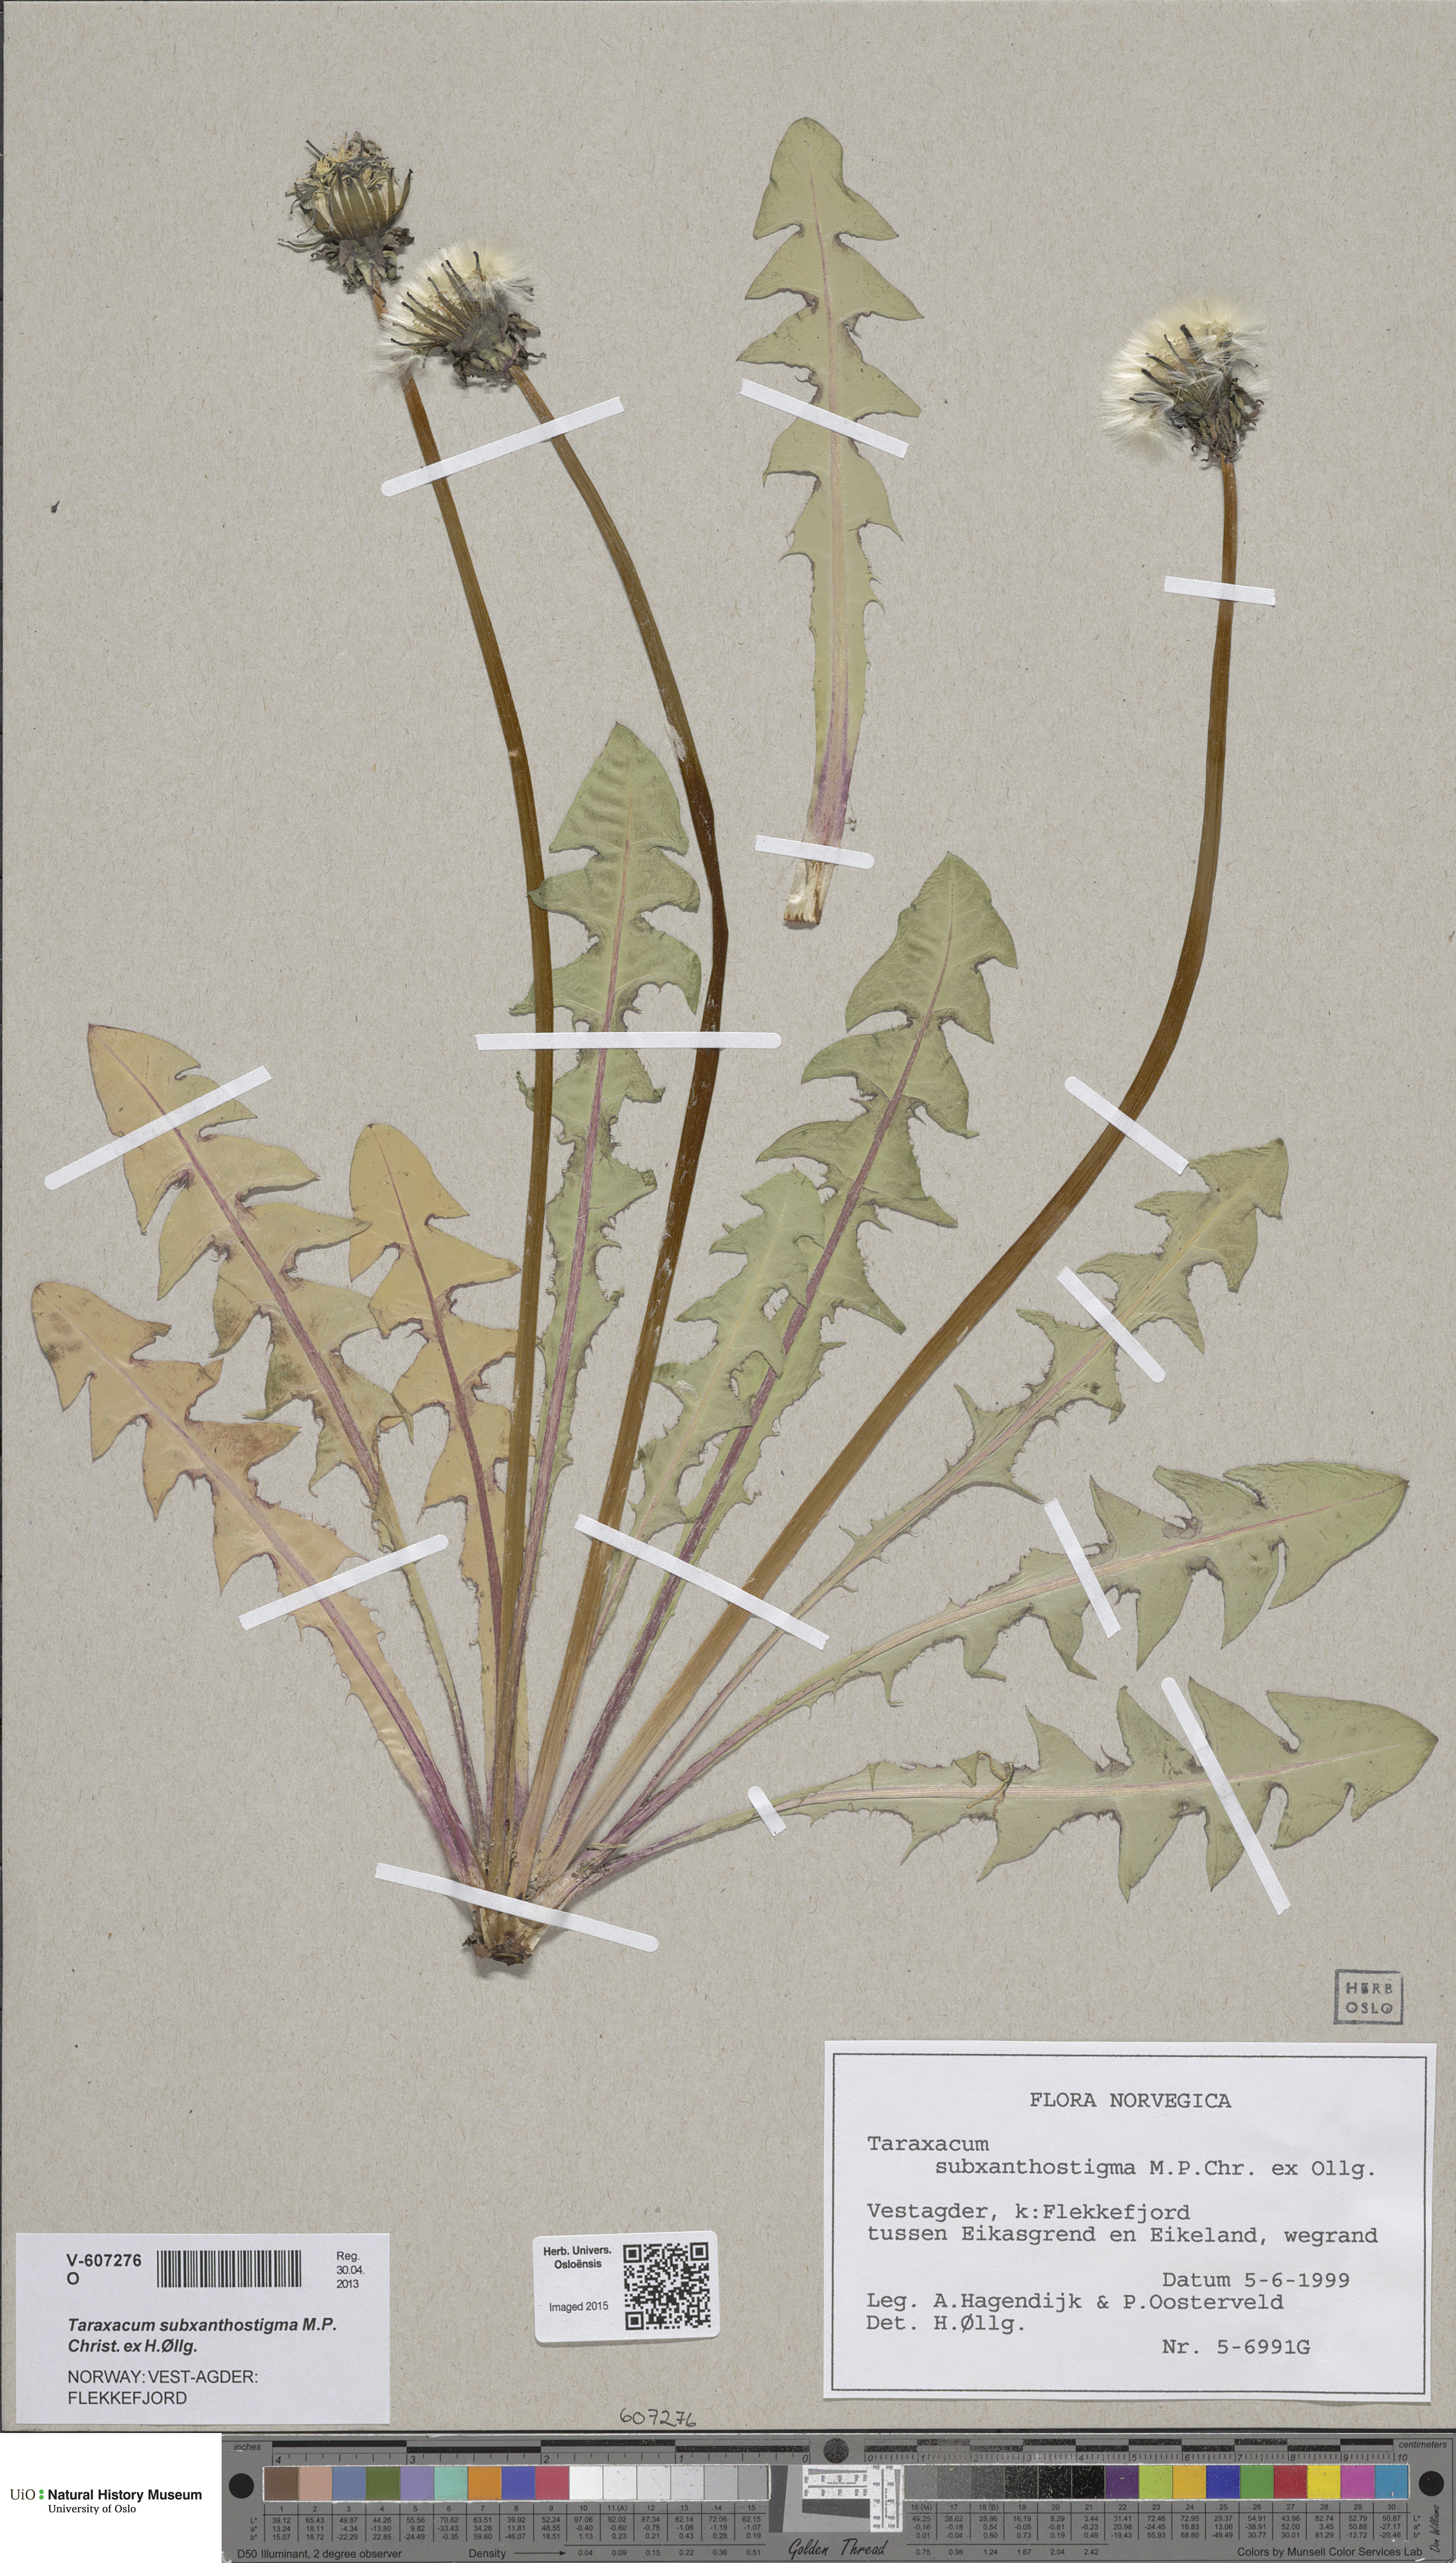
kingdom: Plantae
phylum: Tracheophyta
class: Magnoliopsida
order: Asterales
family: Asteraceae
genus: Taraxacum
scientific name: Taraxacum subxanthostigma
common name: Purple-stalked dandelion
